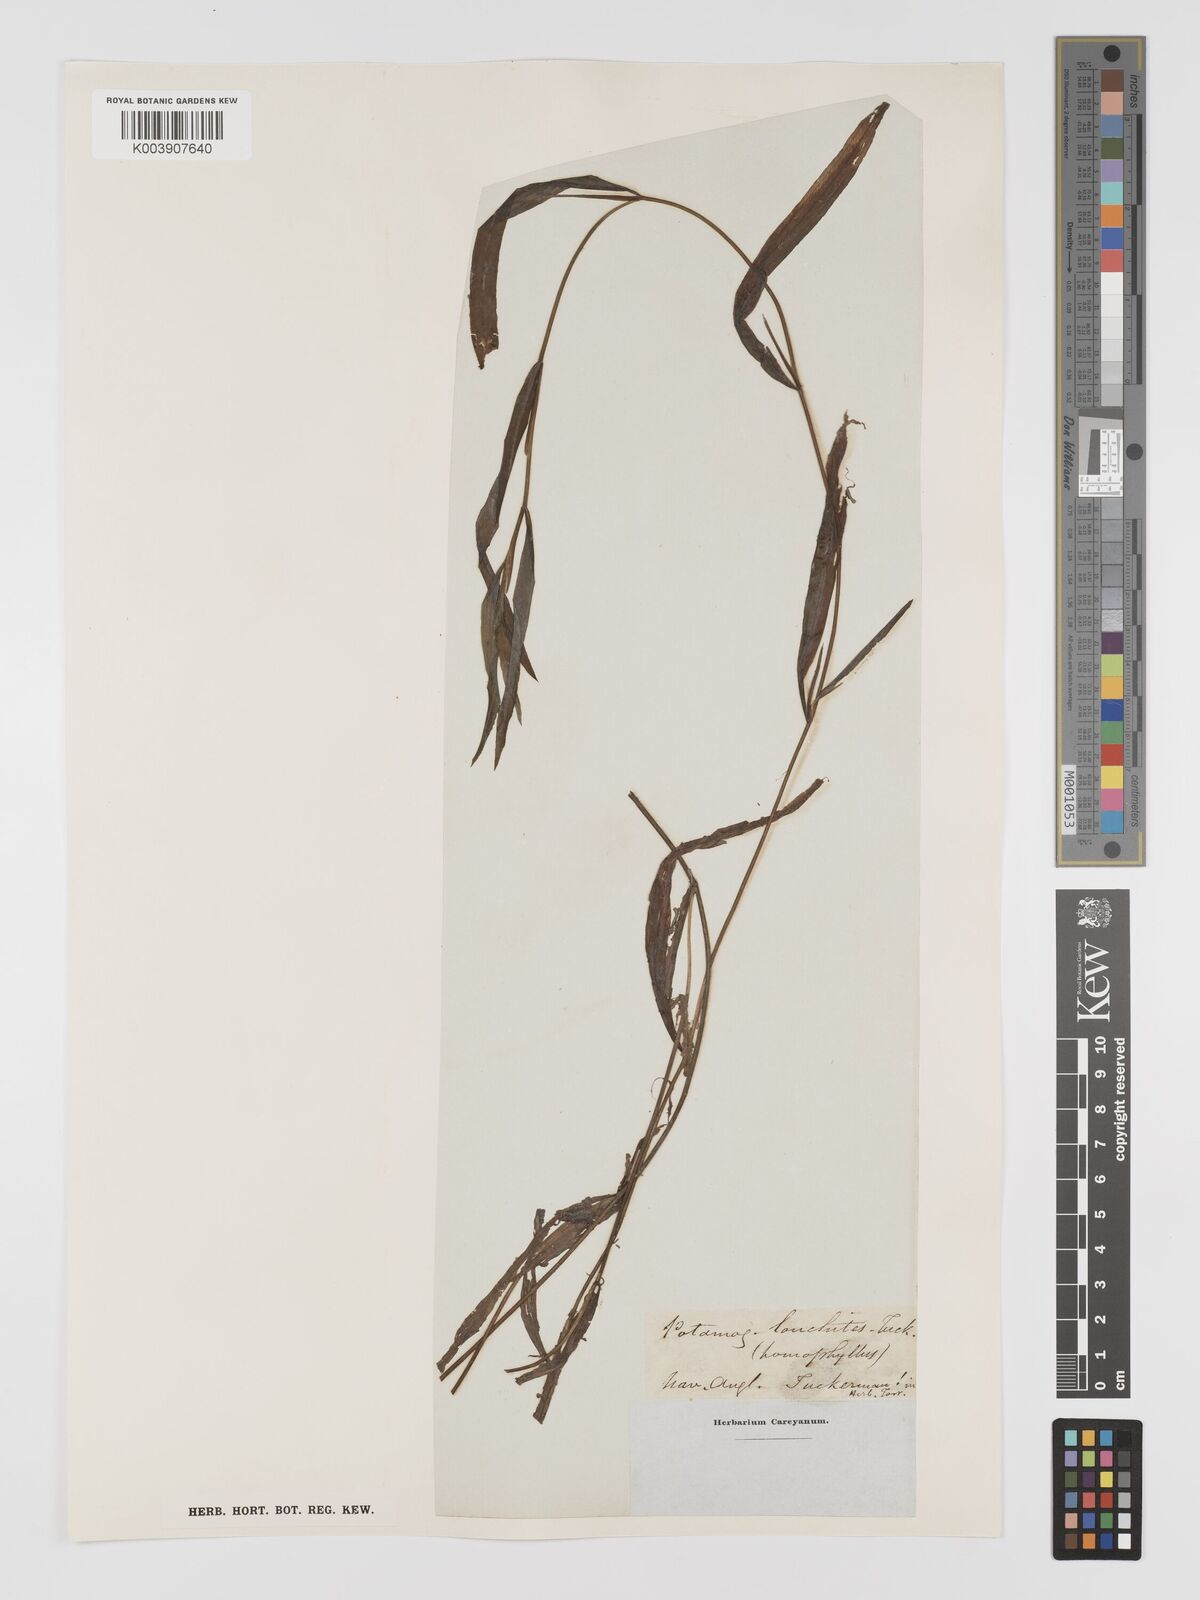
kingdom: Plantae
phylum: Tracheophyta
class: Liliopsida
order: Alismatales
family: Potamogetonaceae
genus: Potamogeton
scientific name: Potamogeton nodosus
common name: Loddon pondweed
